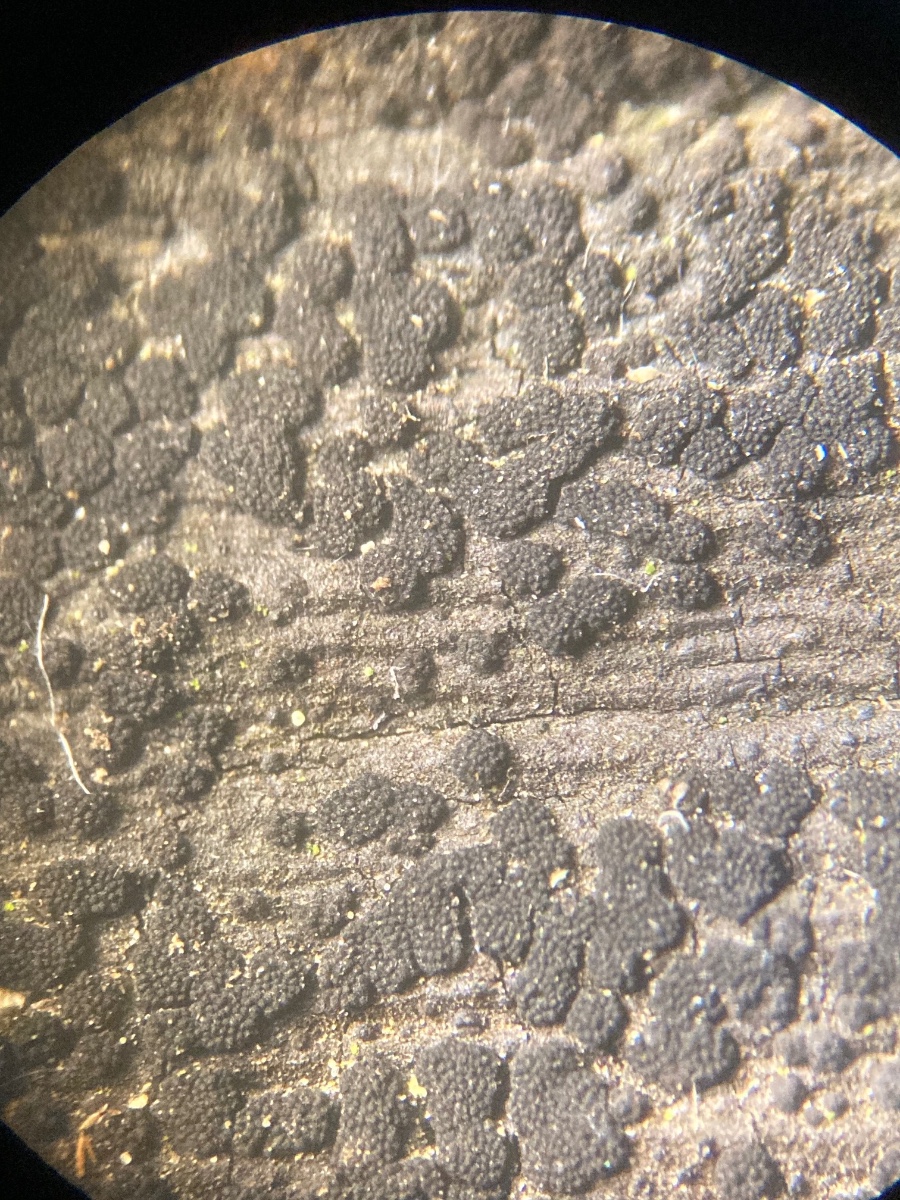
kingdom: Fungi
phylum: Ascomycota
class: Eurotiomycetes
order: Chaetothyriales
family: Herpotrichiellaceae
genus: Capronia
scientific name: Capronia nigerrima
